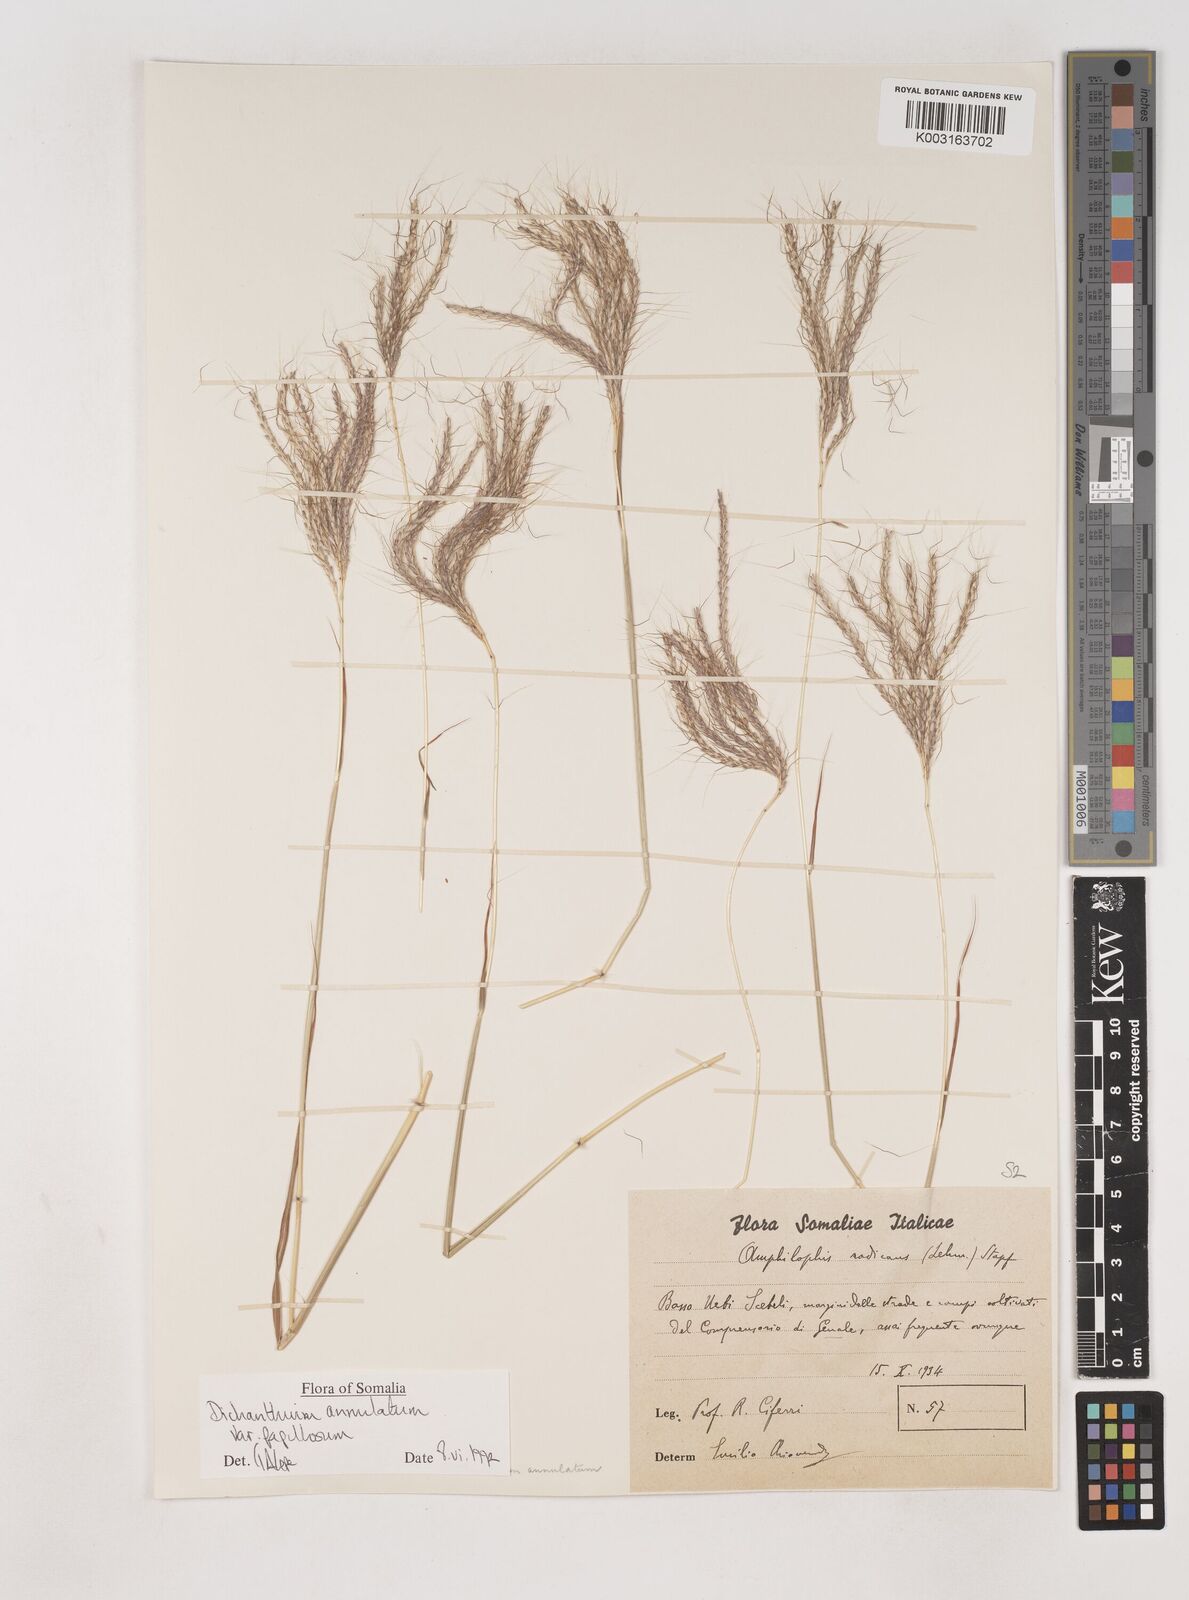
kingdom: Plantae
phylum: Tracheophyta
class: Liliopsida
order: Poales
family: Poaceae
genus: Dichanthium
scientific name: Dichanthium annulatum
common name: Kleberg's bluestem
